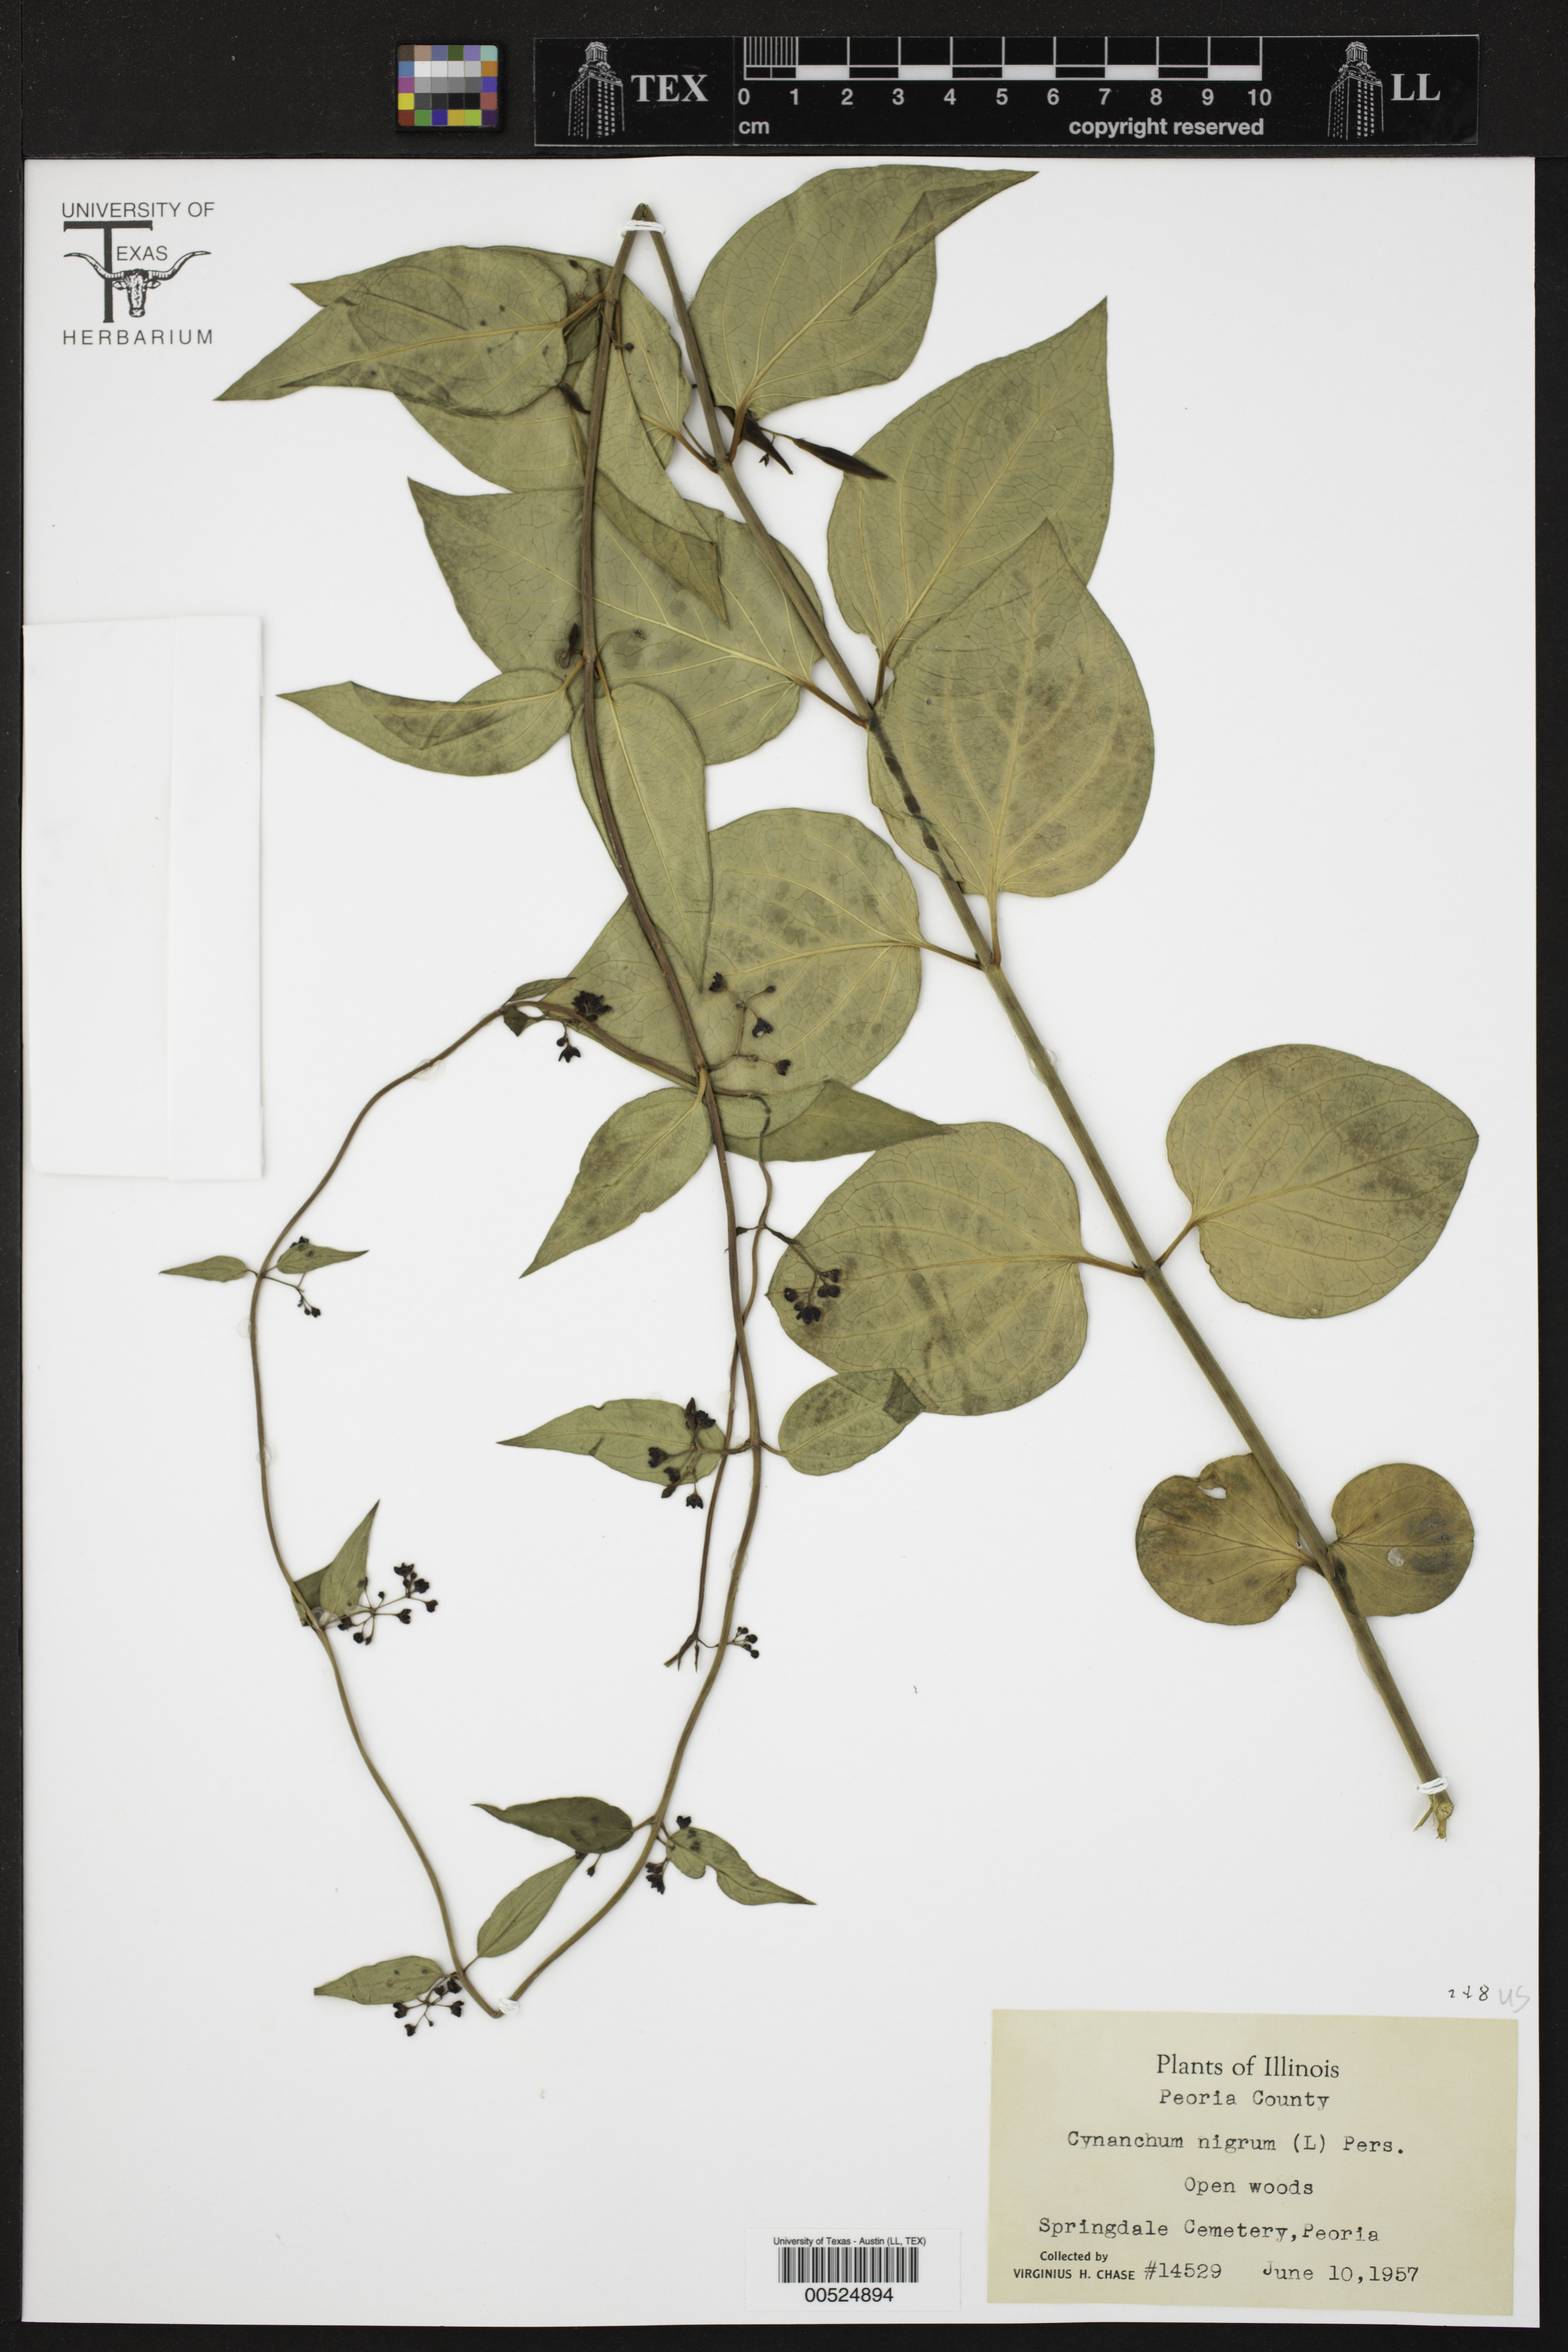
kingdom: Plantae
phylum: Tracheophyta
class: Magnoliopsida
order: Gentianales
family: Apocynaceae
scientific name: Apocynaceae
